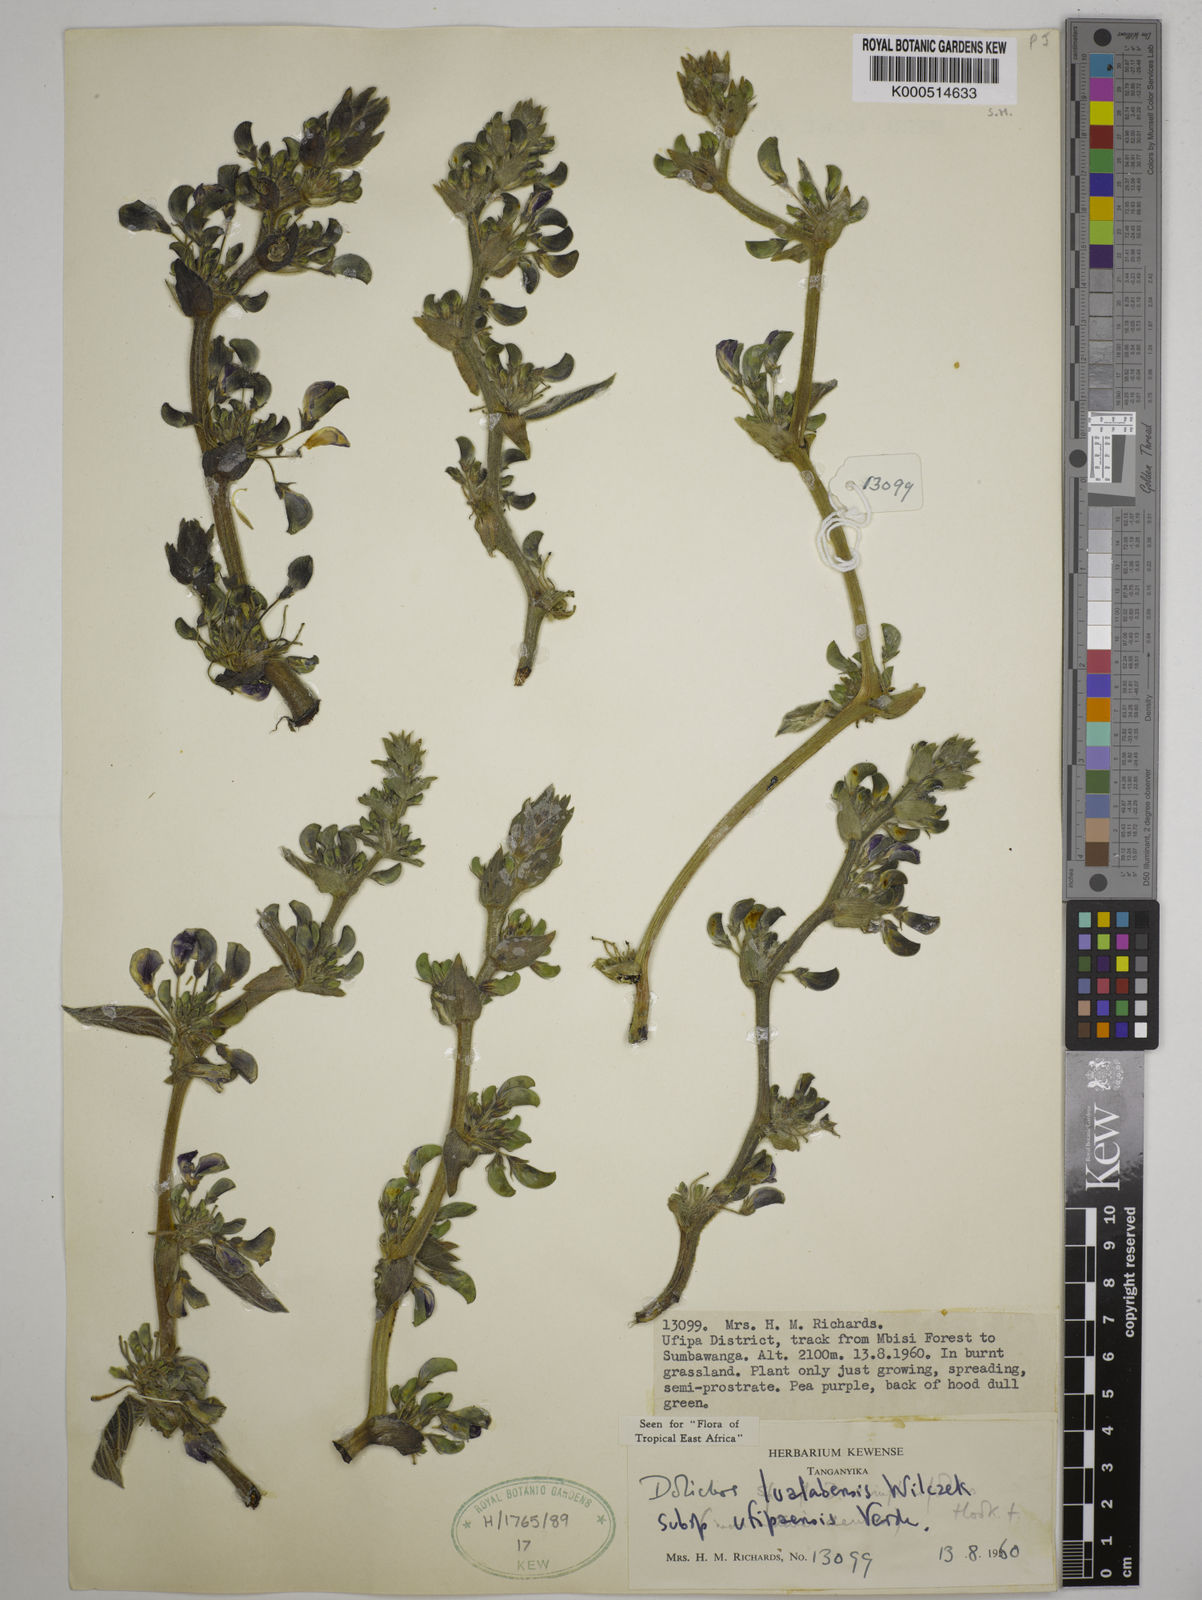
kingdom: Plantae
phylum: Tracheophyta
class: Magnoliopsida
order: Fabales
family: Fabaceae
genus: Dolichos
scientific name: Dolichos
